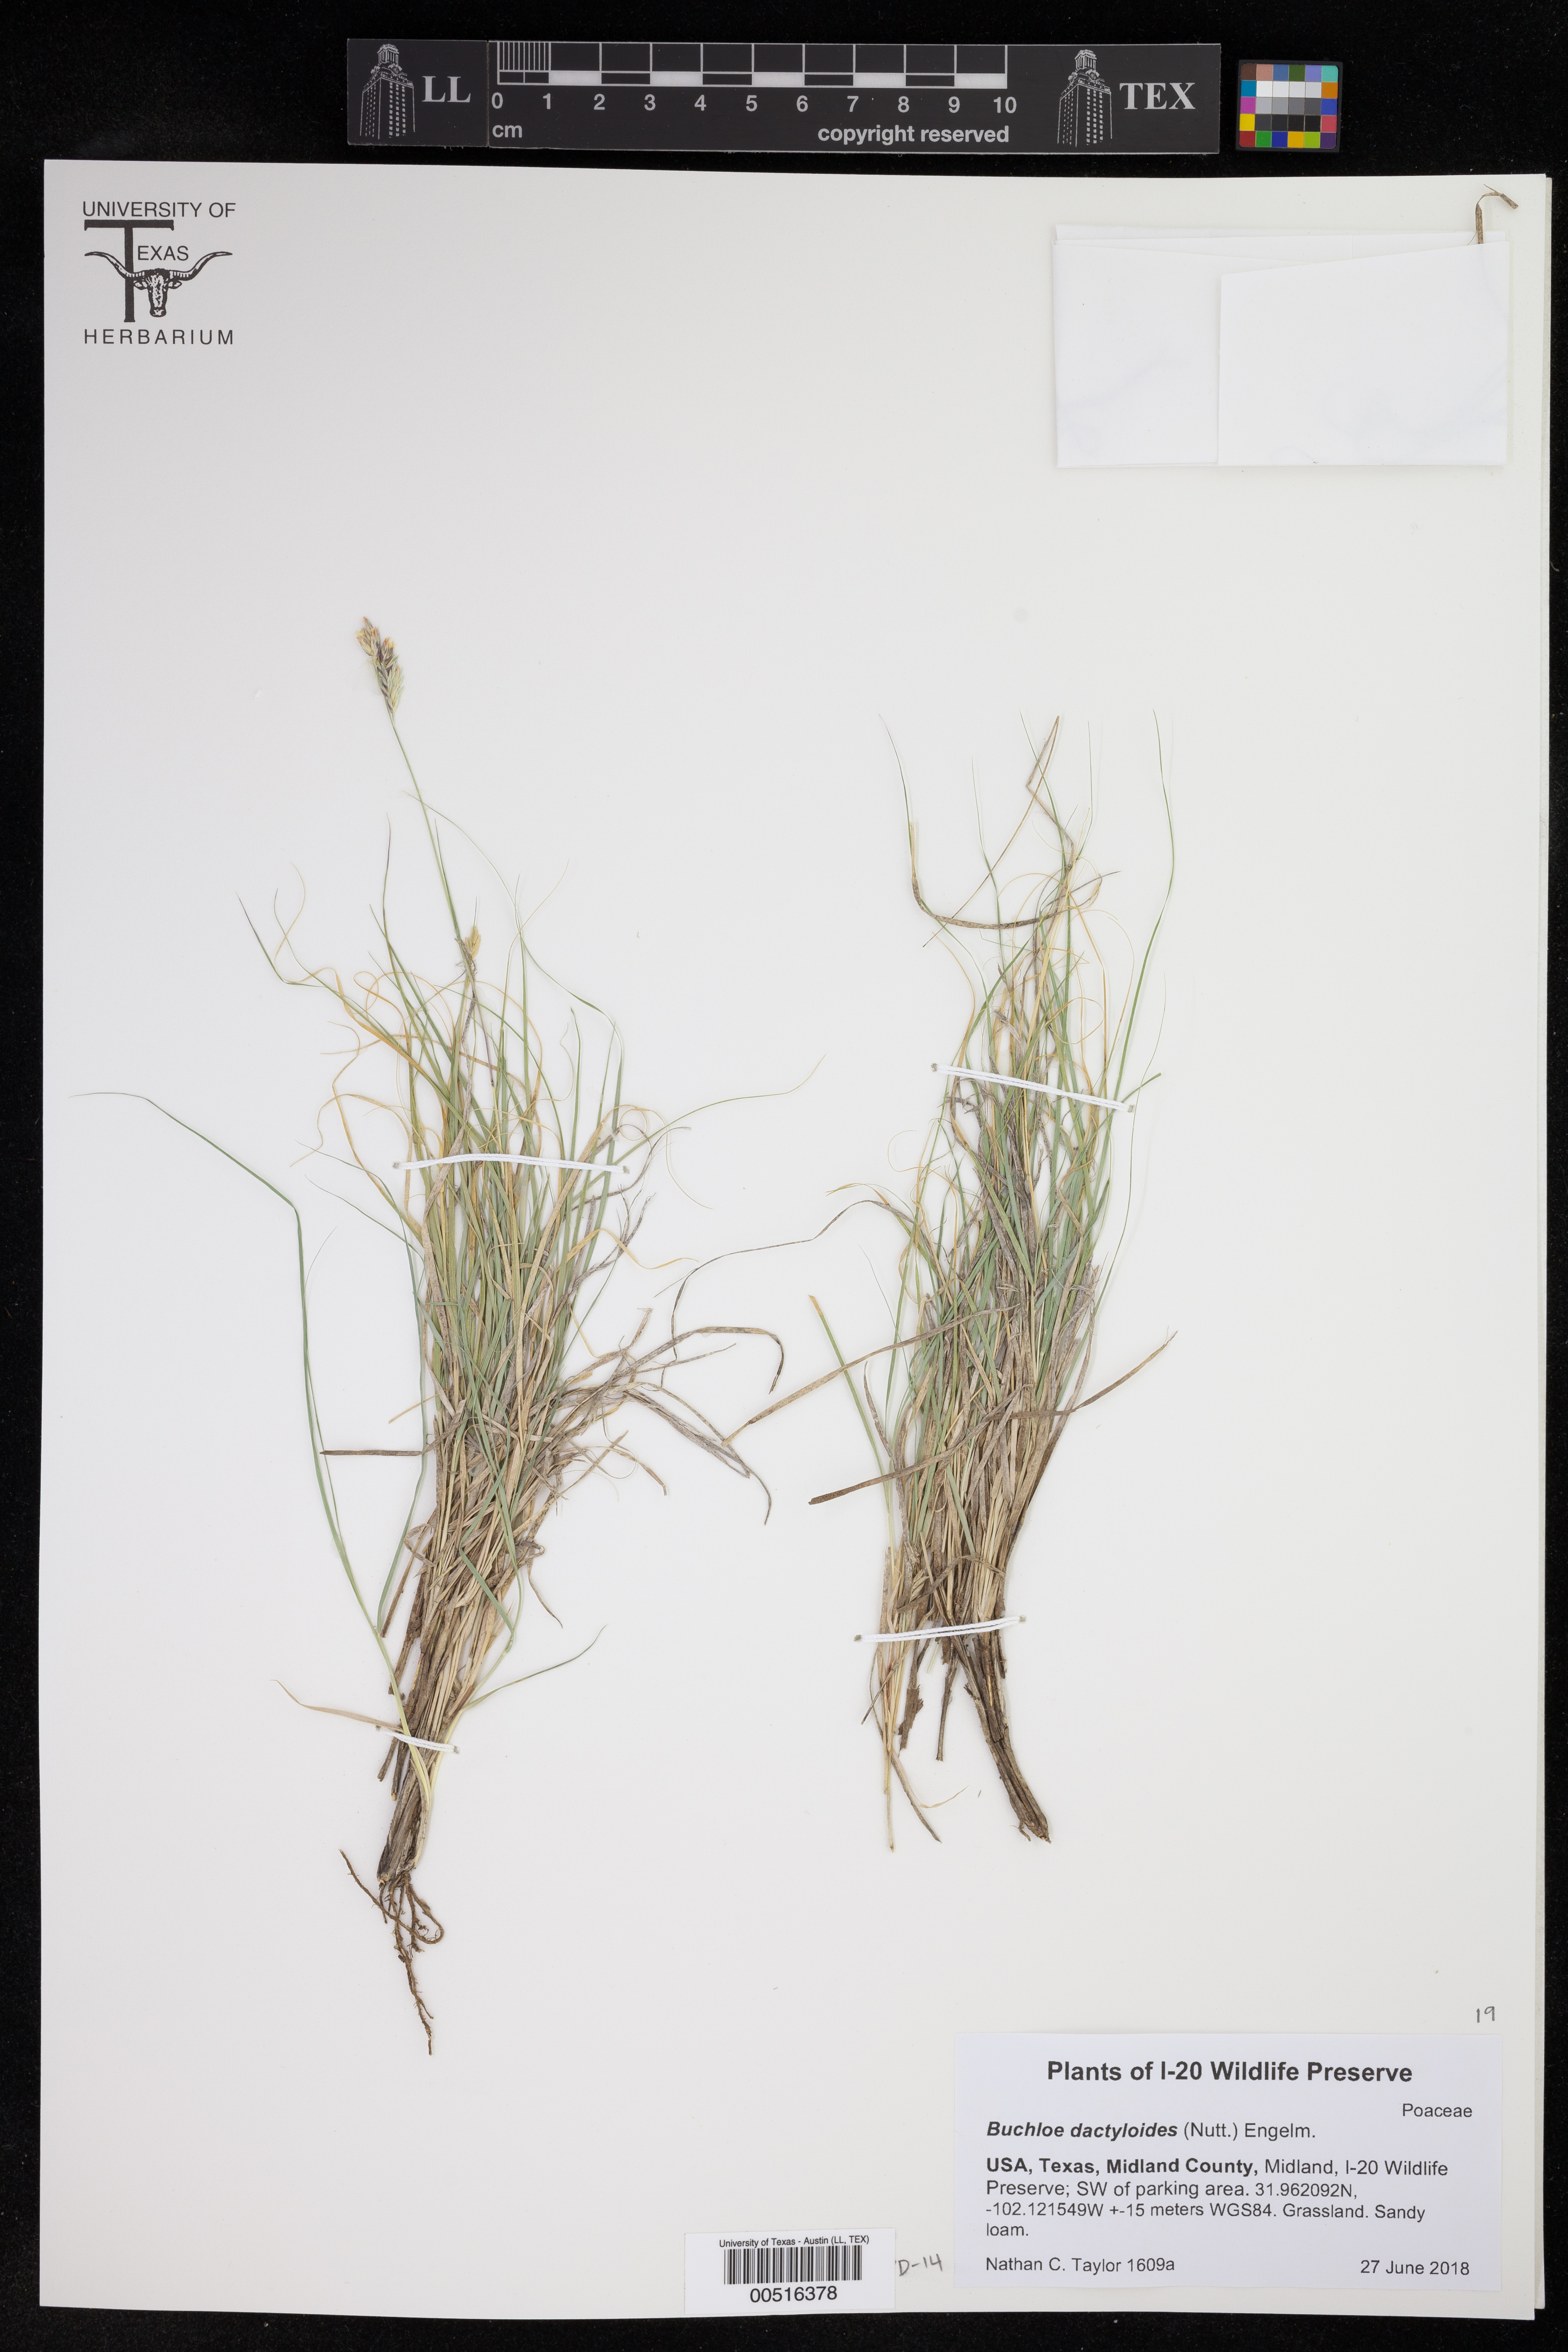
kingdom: Plantae
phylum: Tracheophyta
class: Liliopsida
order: Poales
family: Poaceae
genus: Bouteloua
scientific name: Bouteloua dactyloides
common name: Buffalo grass
